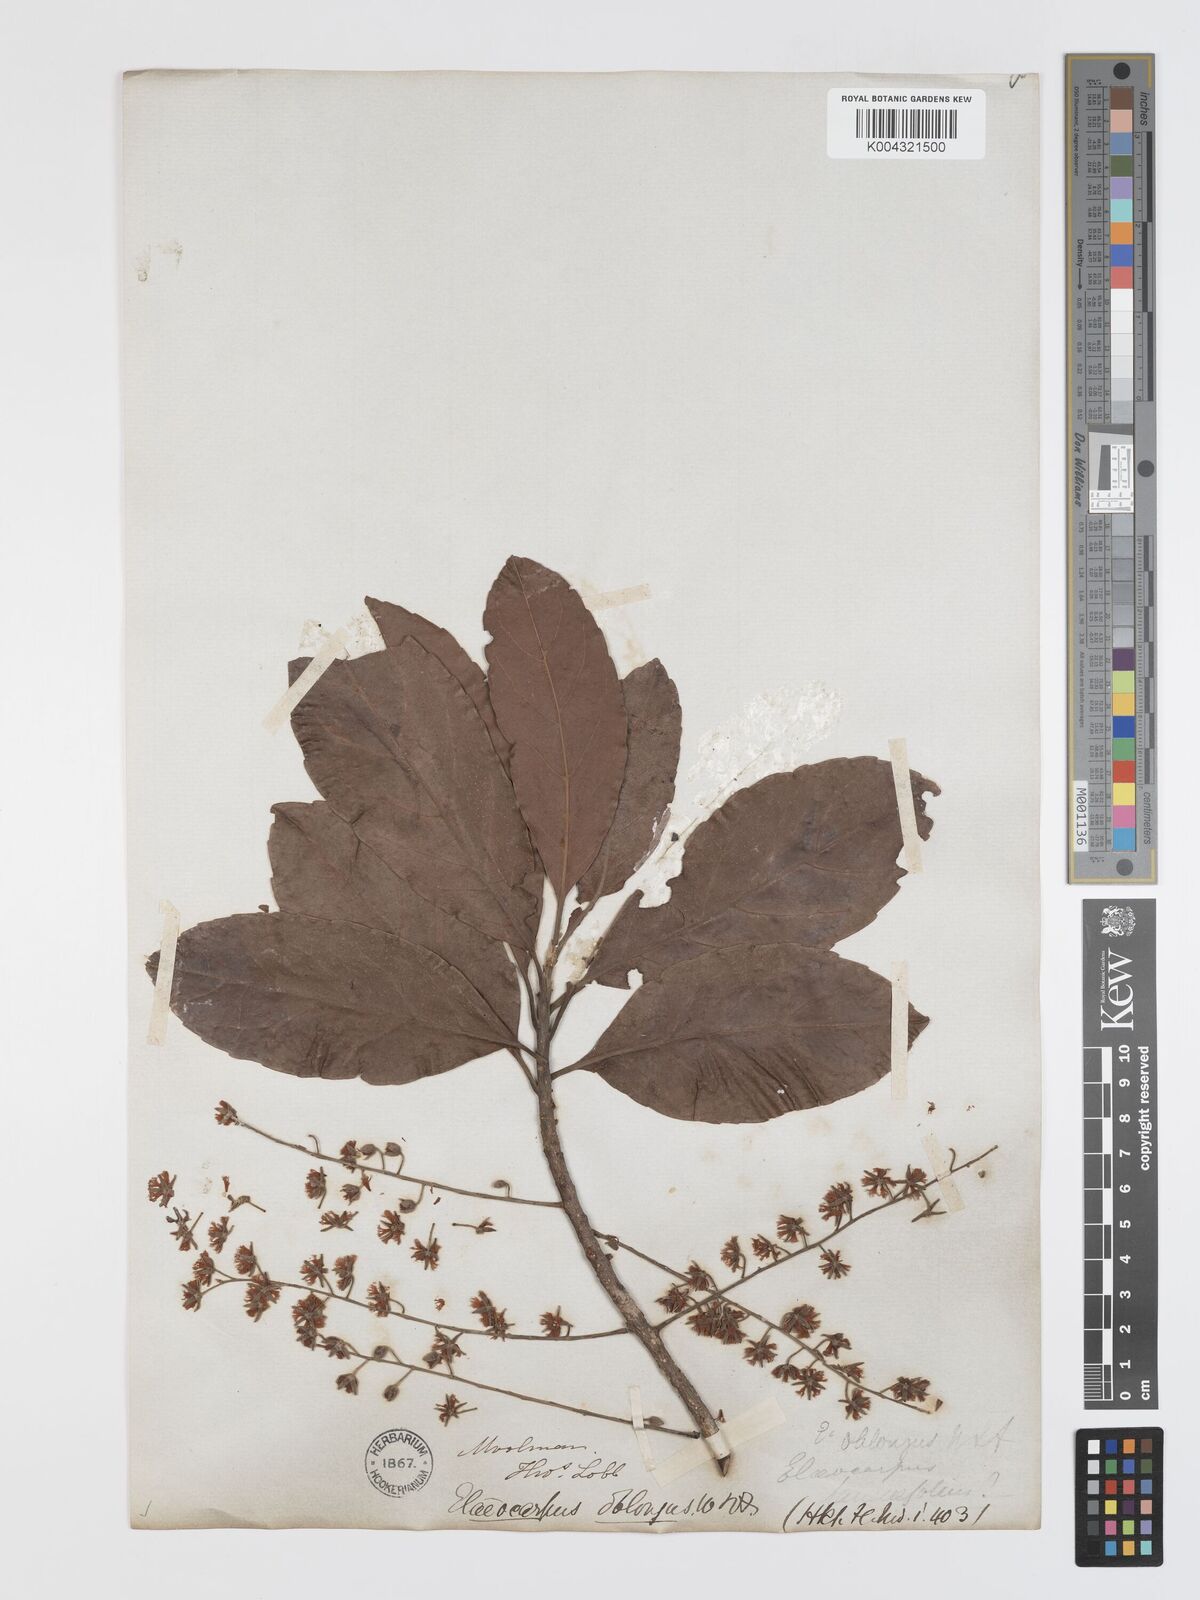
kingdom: Plantae
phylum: Tracheophyta
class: Magnoliopsida
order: Oxalidales
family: Elaeocarpaceae
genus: Elaeocarpus
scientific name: Elaeocarpus lanceifolius
